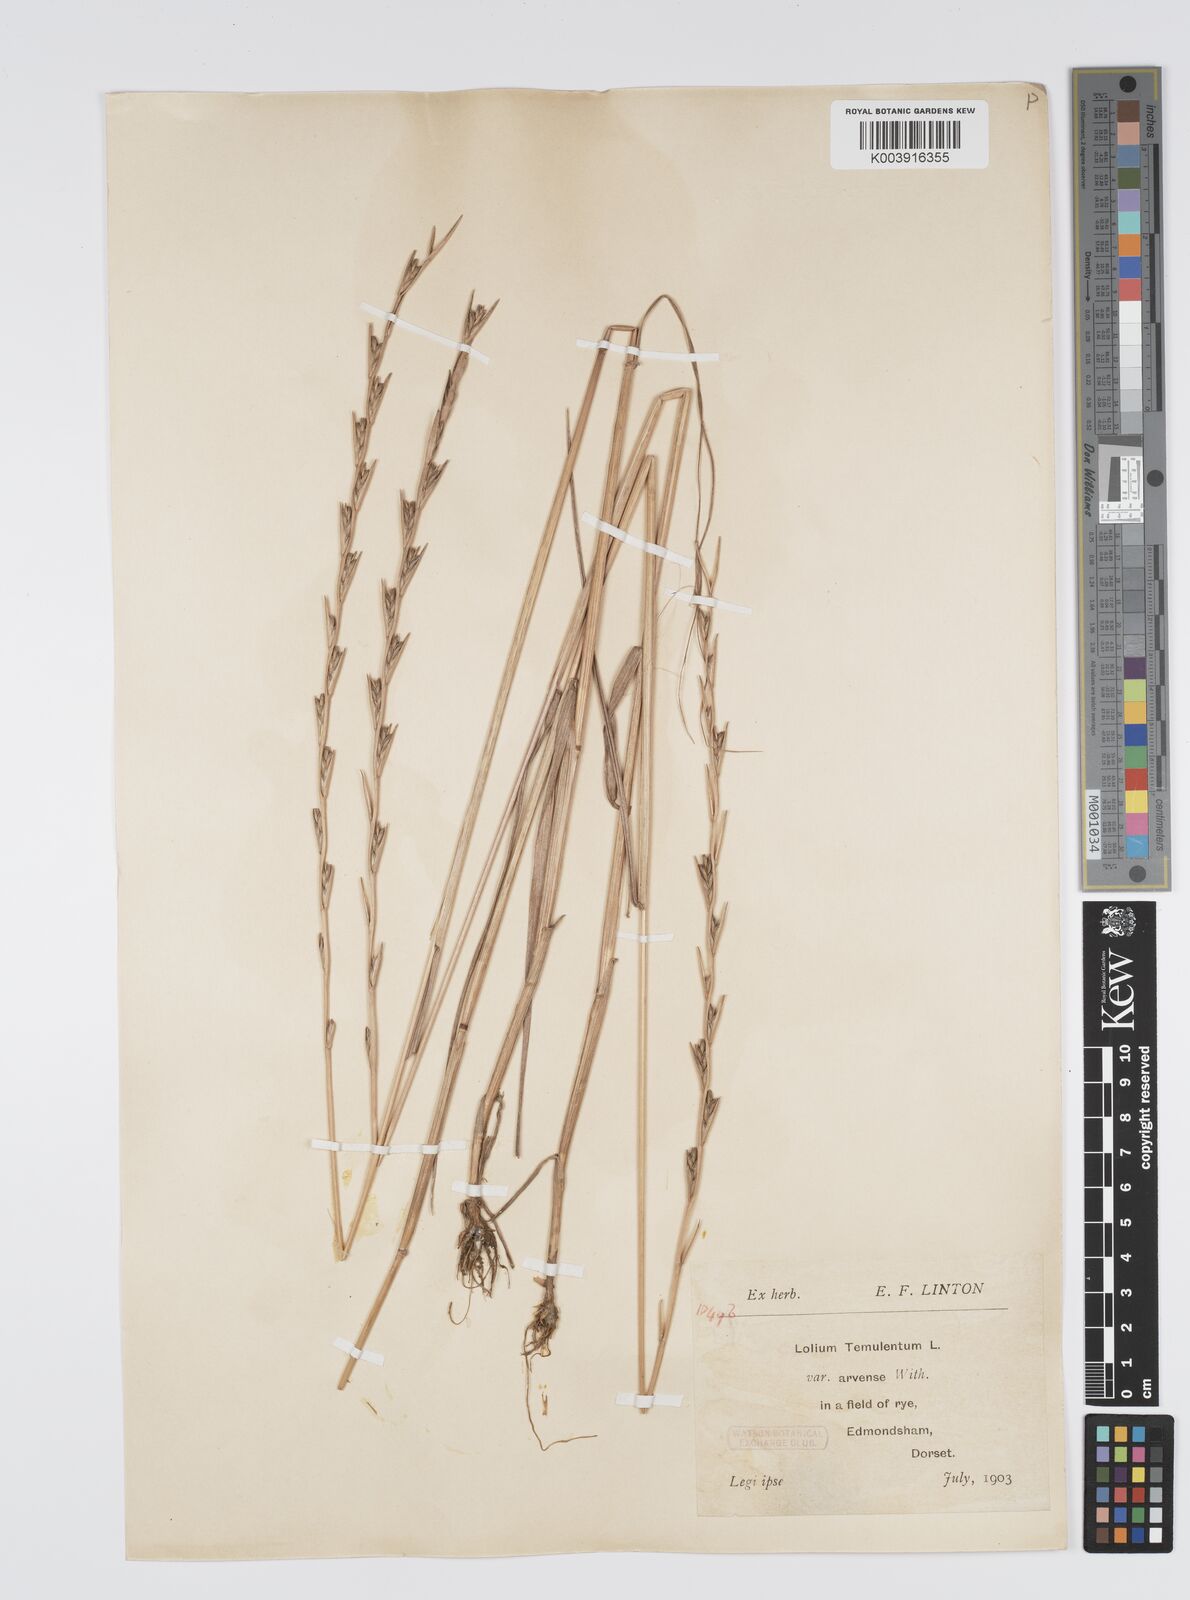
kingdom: Plantae
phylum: Tracheophyta
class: Liliopsida
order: Poales
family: Poaceae
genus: Lolium
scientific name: Lolium temulentum
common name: Darnel
